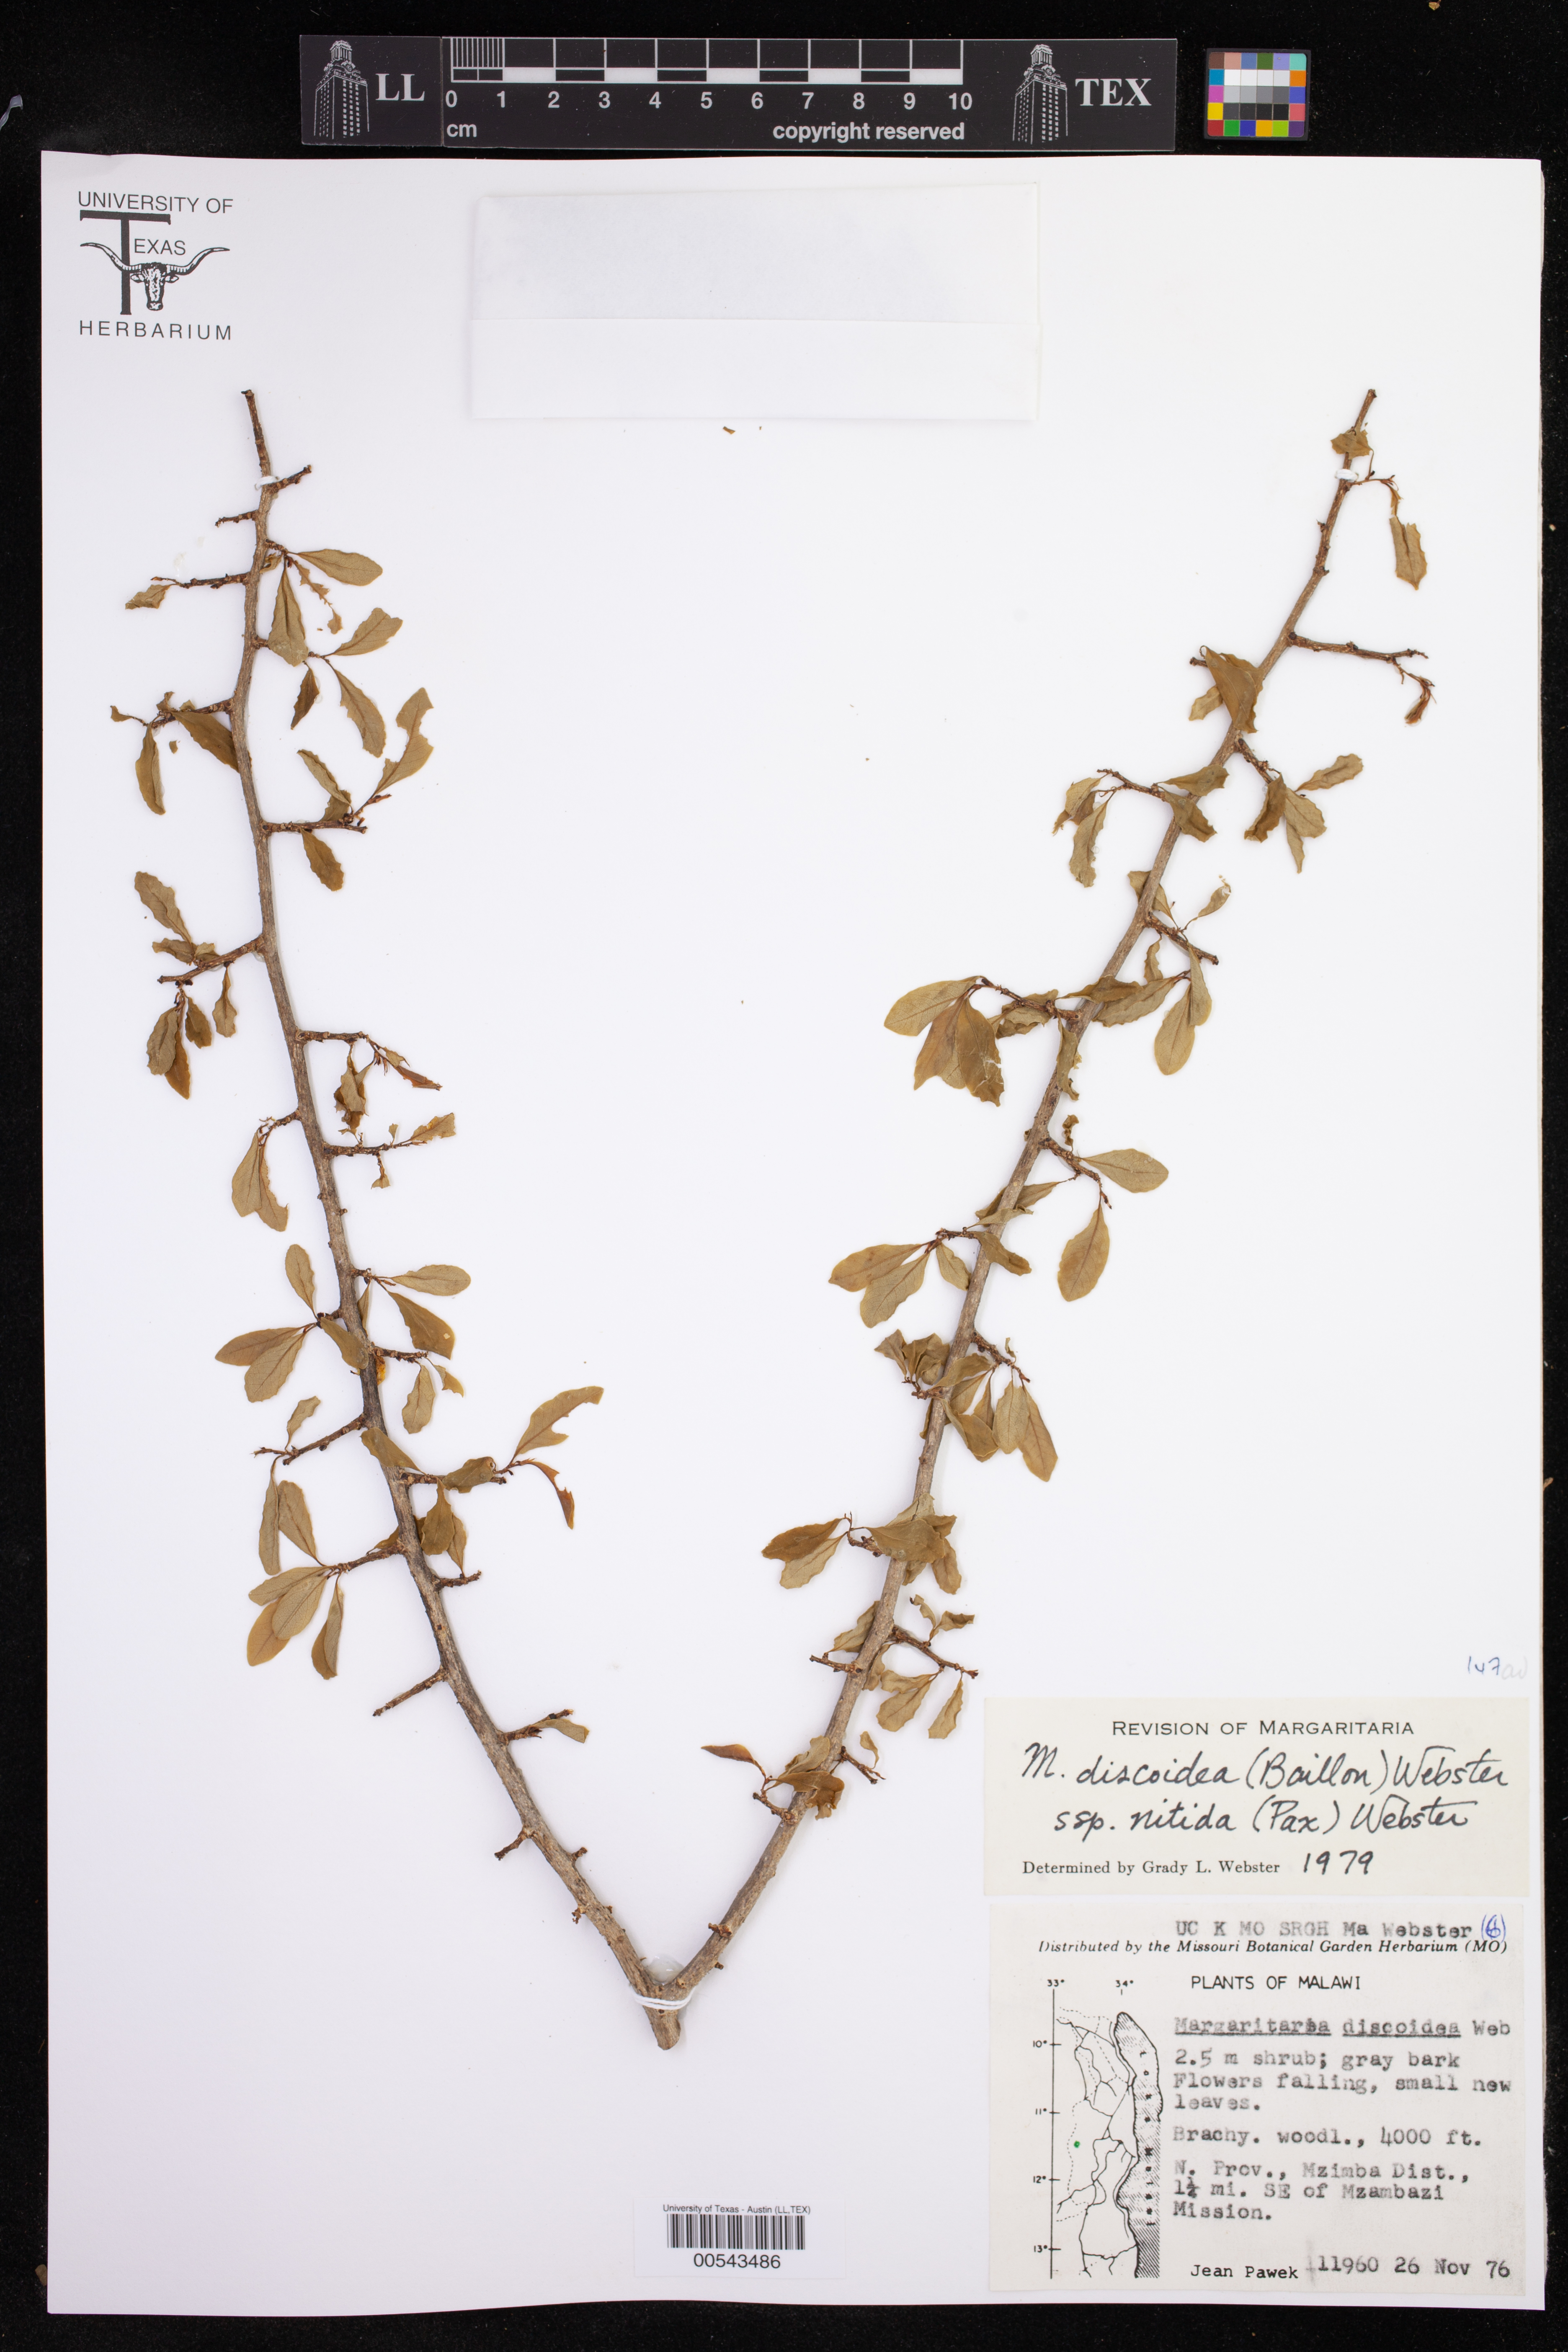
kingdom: Plantae
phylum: Tracheophyta
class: Magnoliopsida
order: Malpighiales
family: Phyllanthaceae
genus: Margaritaria
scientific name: Margaritaria discoidea
